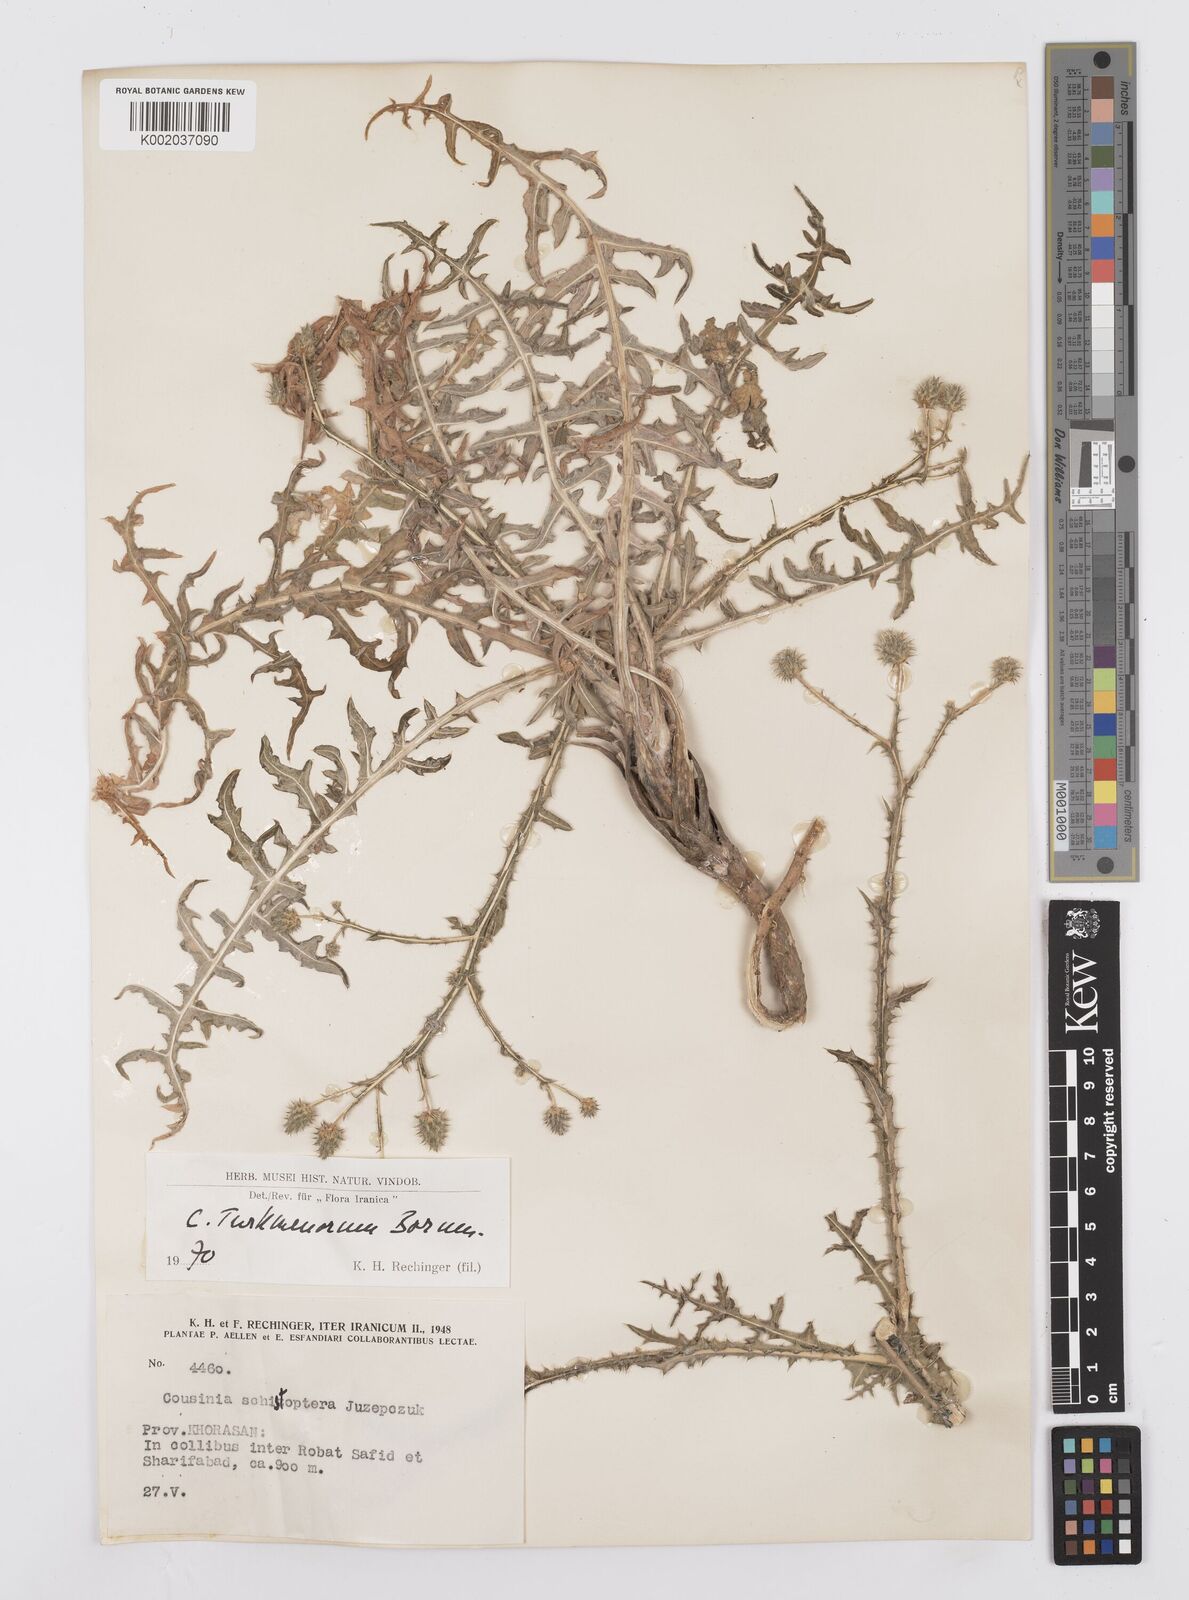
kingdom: Plantae
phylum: Tracheophyta
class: Magnoliopsida
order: Asterales
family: Asteraceae
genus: Cousinia
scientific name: Cousinia turkmenorum
